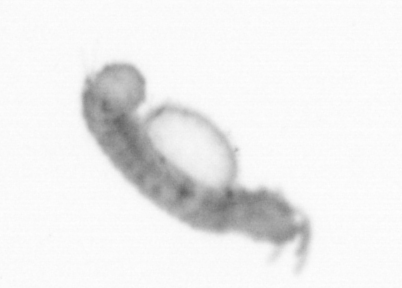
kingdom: Animalia
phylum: Annelida
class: Polychaeta
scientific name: Polychaeta
